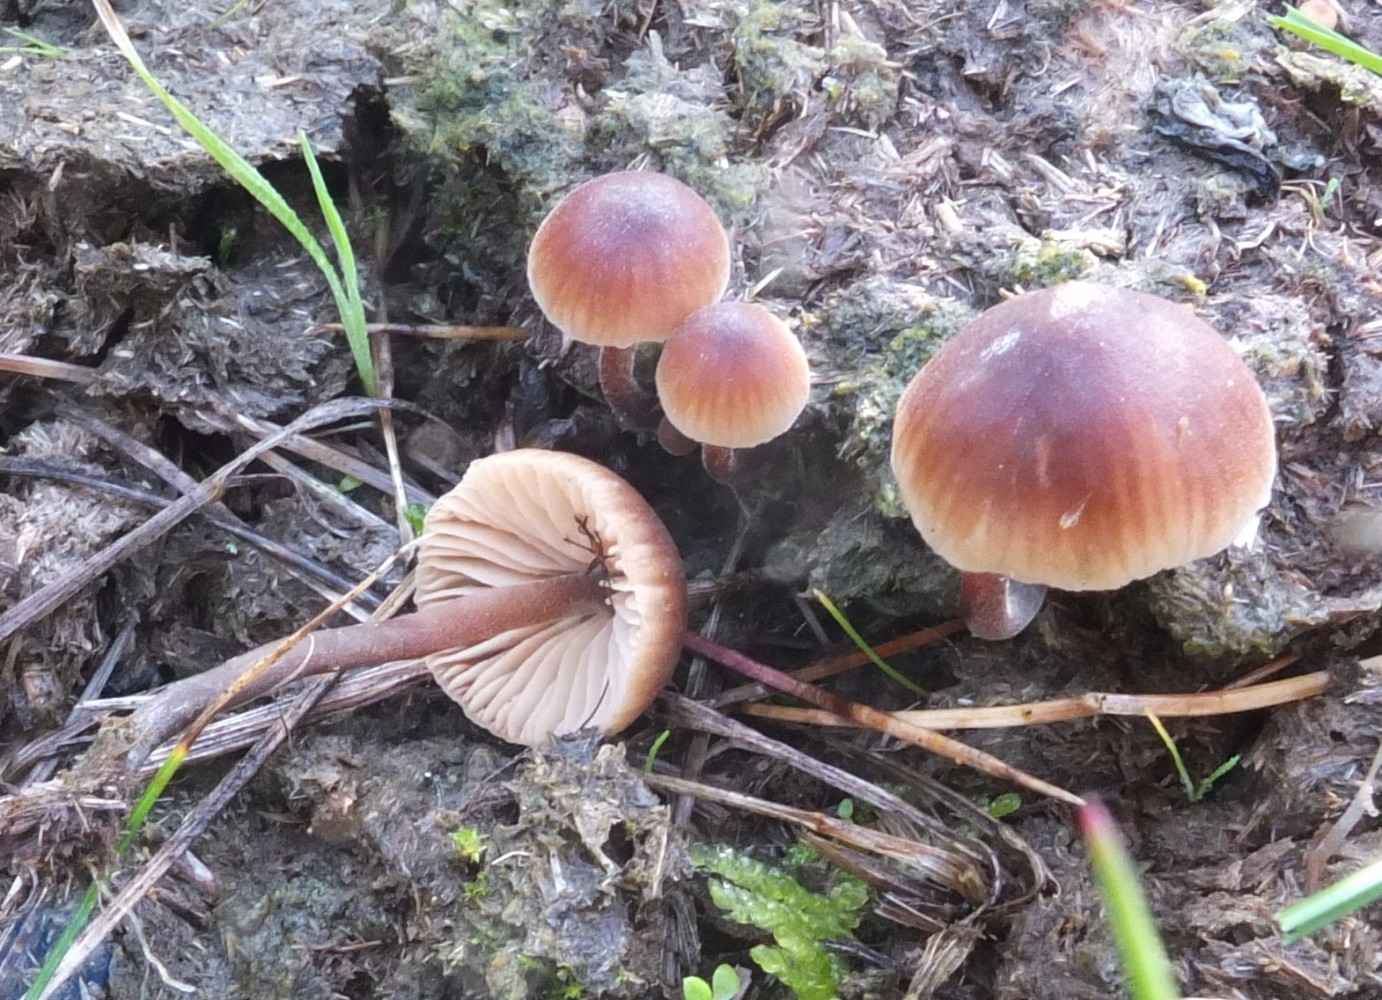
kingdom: Fungi
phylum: Basidiomycota
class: Agaricomycetes
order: Agaricales
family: Macrocystidiaceae
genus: Macrocystidia
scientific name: Macrocystidia cucumis
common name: agurkehat
